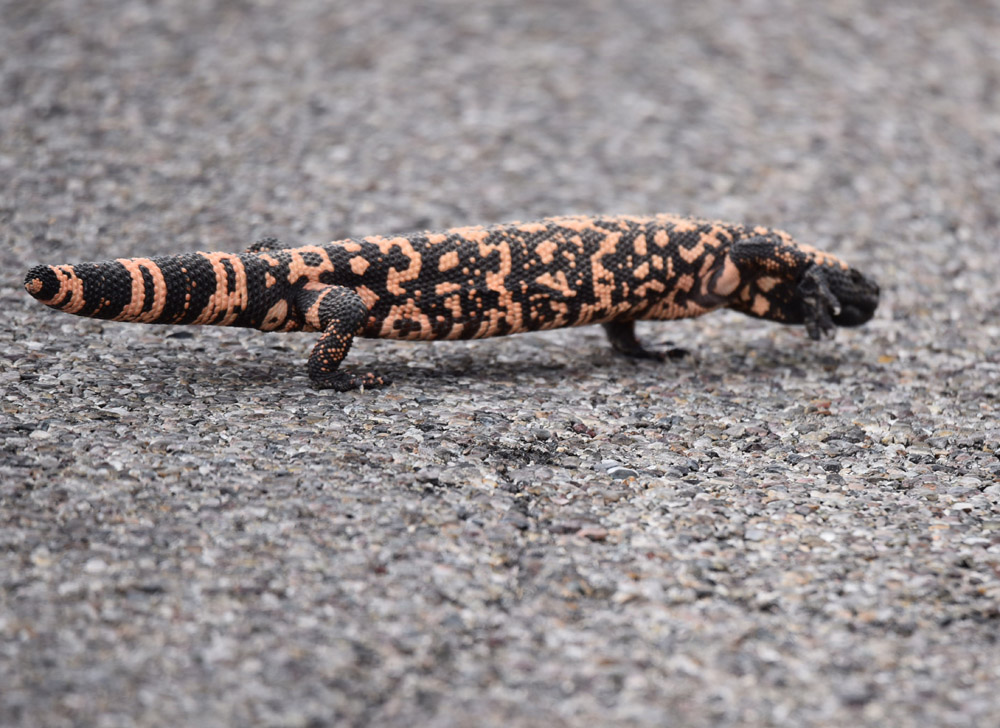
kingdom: Animalia
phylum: Chordata
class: Squamata
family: Helodermatidae
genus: Heloderma
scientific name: Heloderma suspectum
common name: Gila monster
